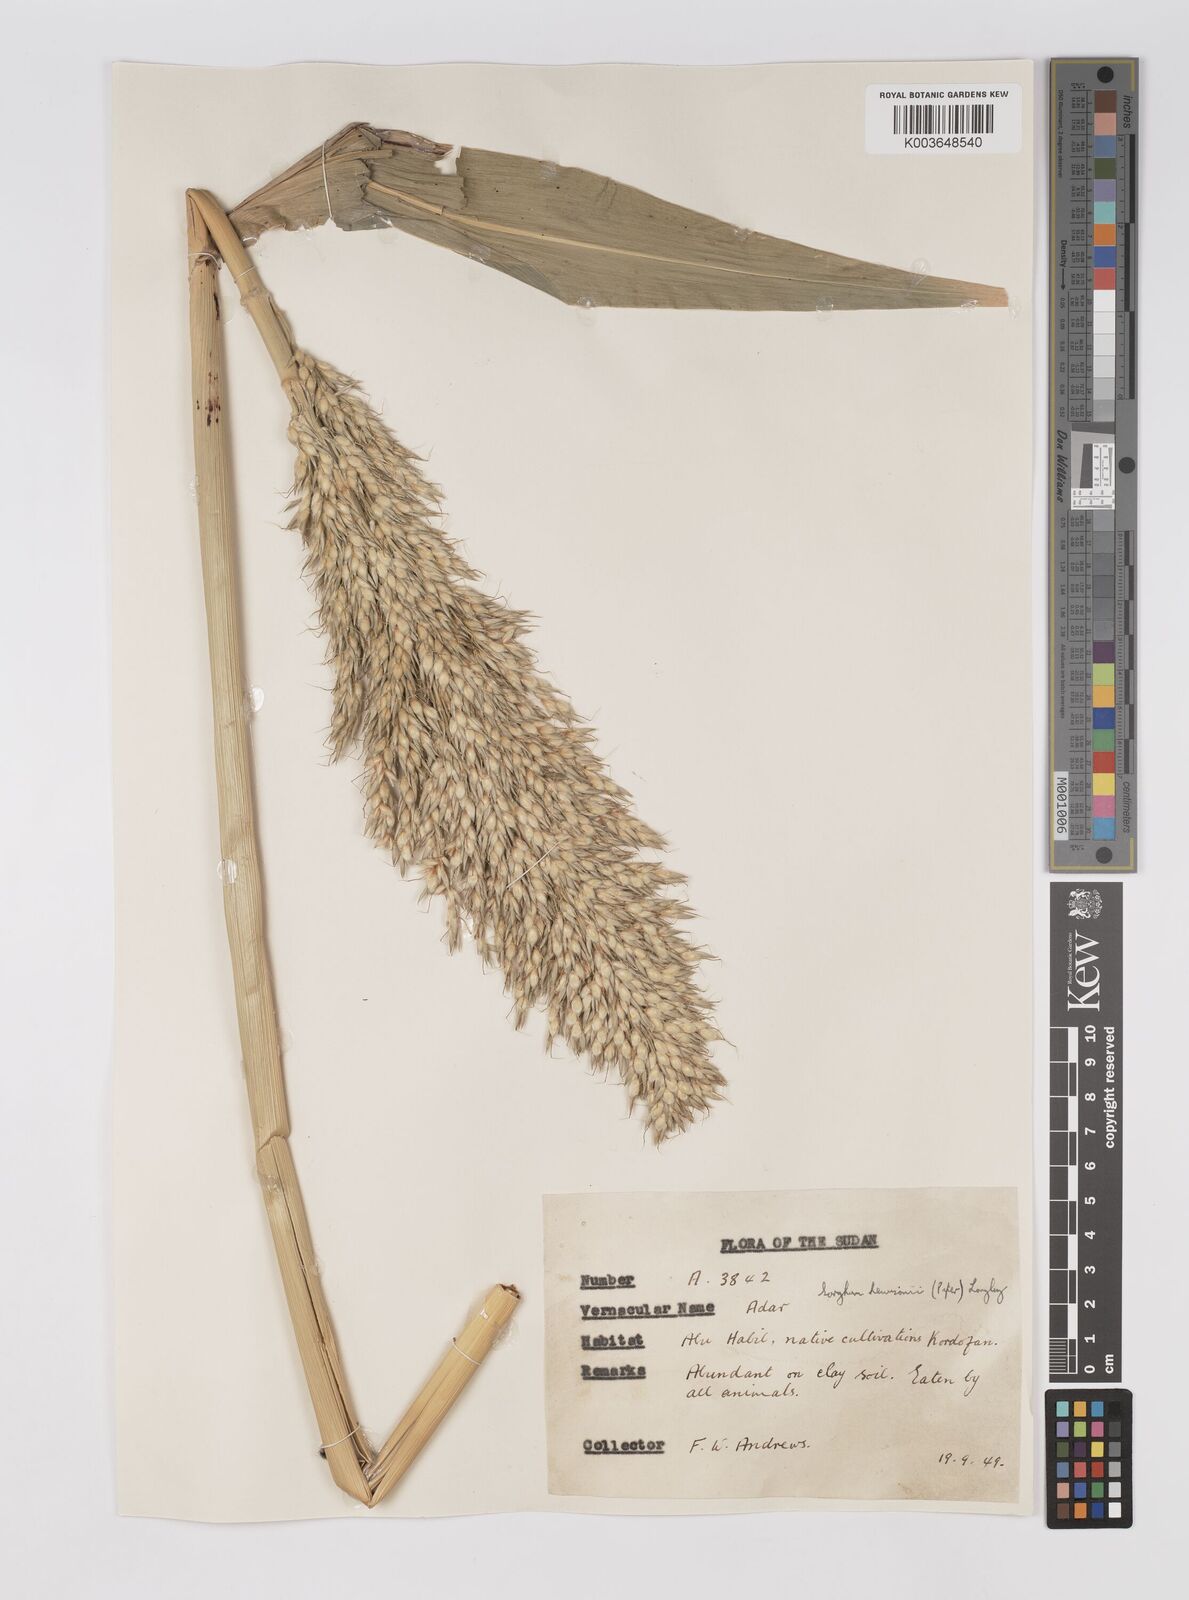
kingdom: Plantae
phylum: Tracheophyta
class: Liliopsida
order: Poales
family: Poaceae
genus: Sorghum
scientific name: Sorghum drummondii
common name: Sudangrass
